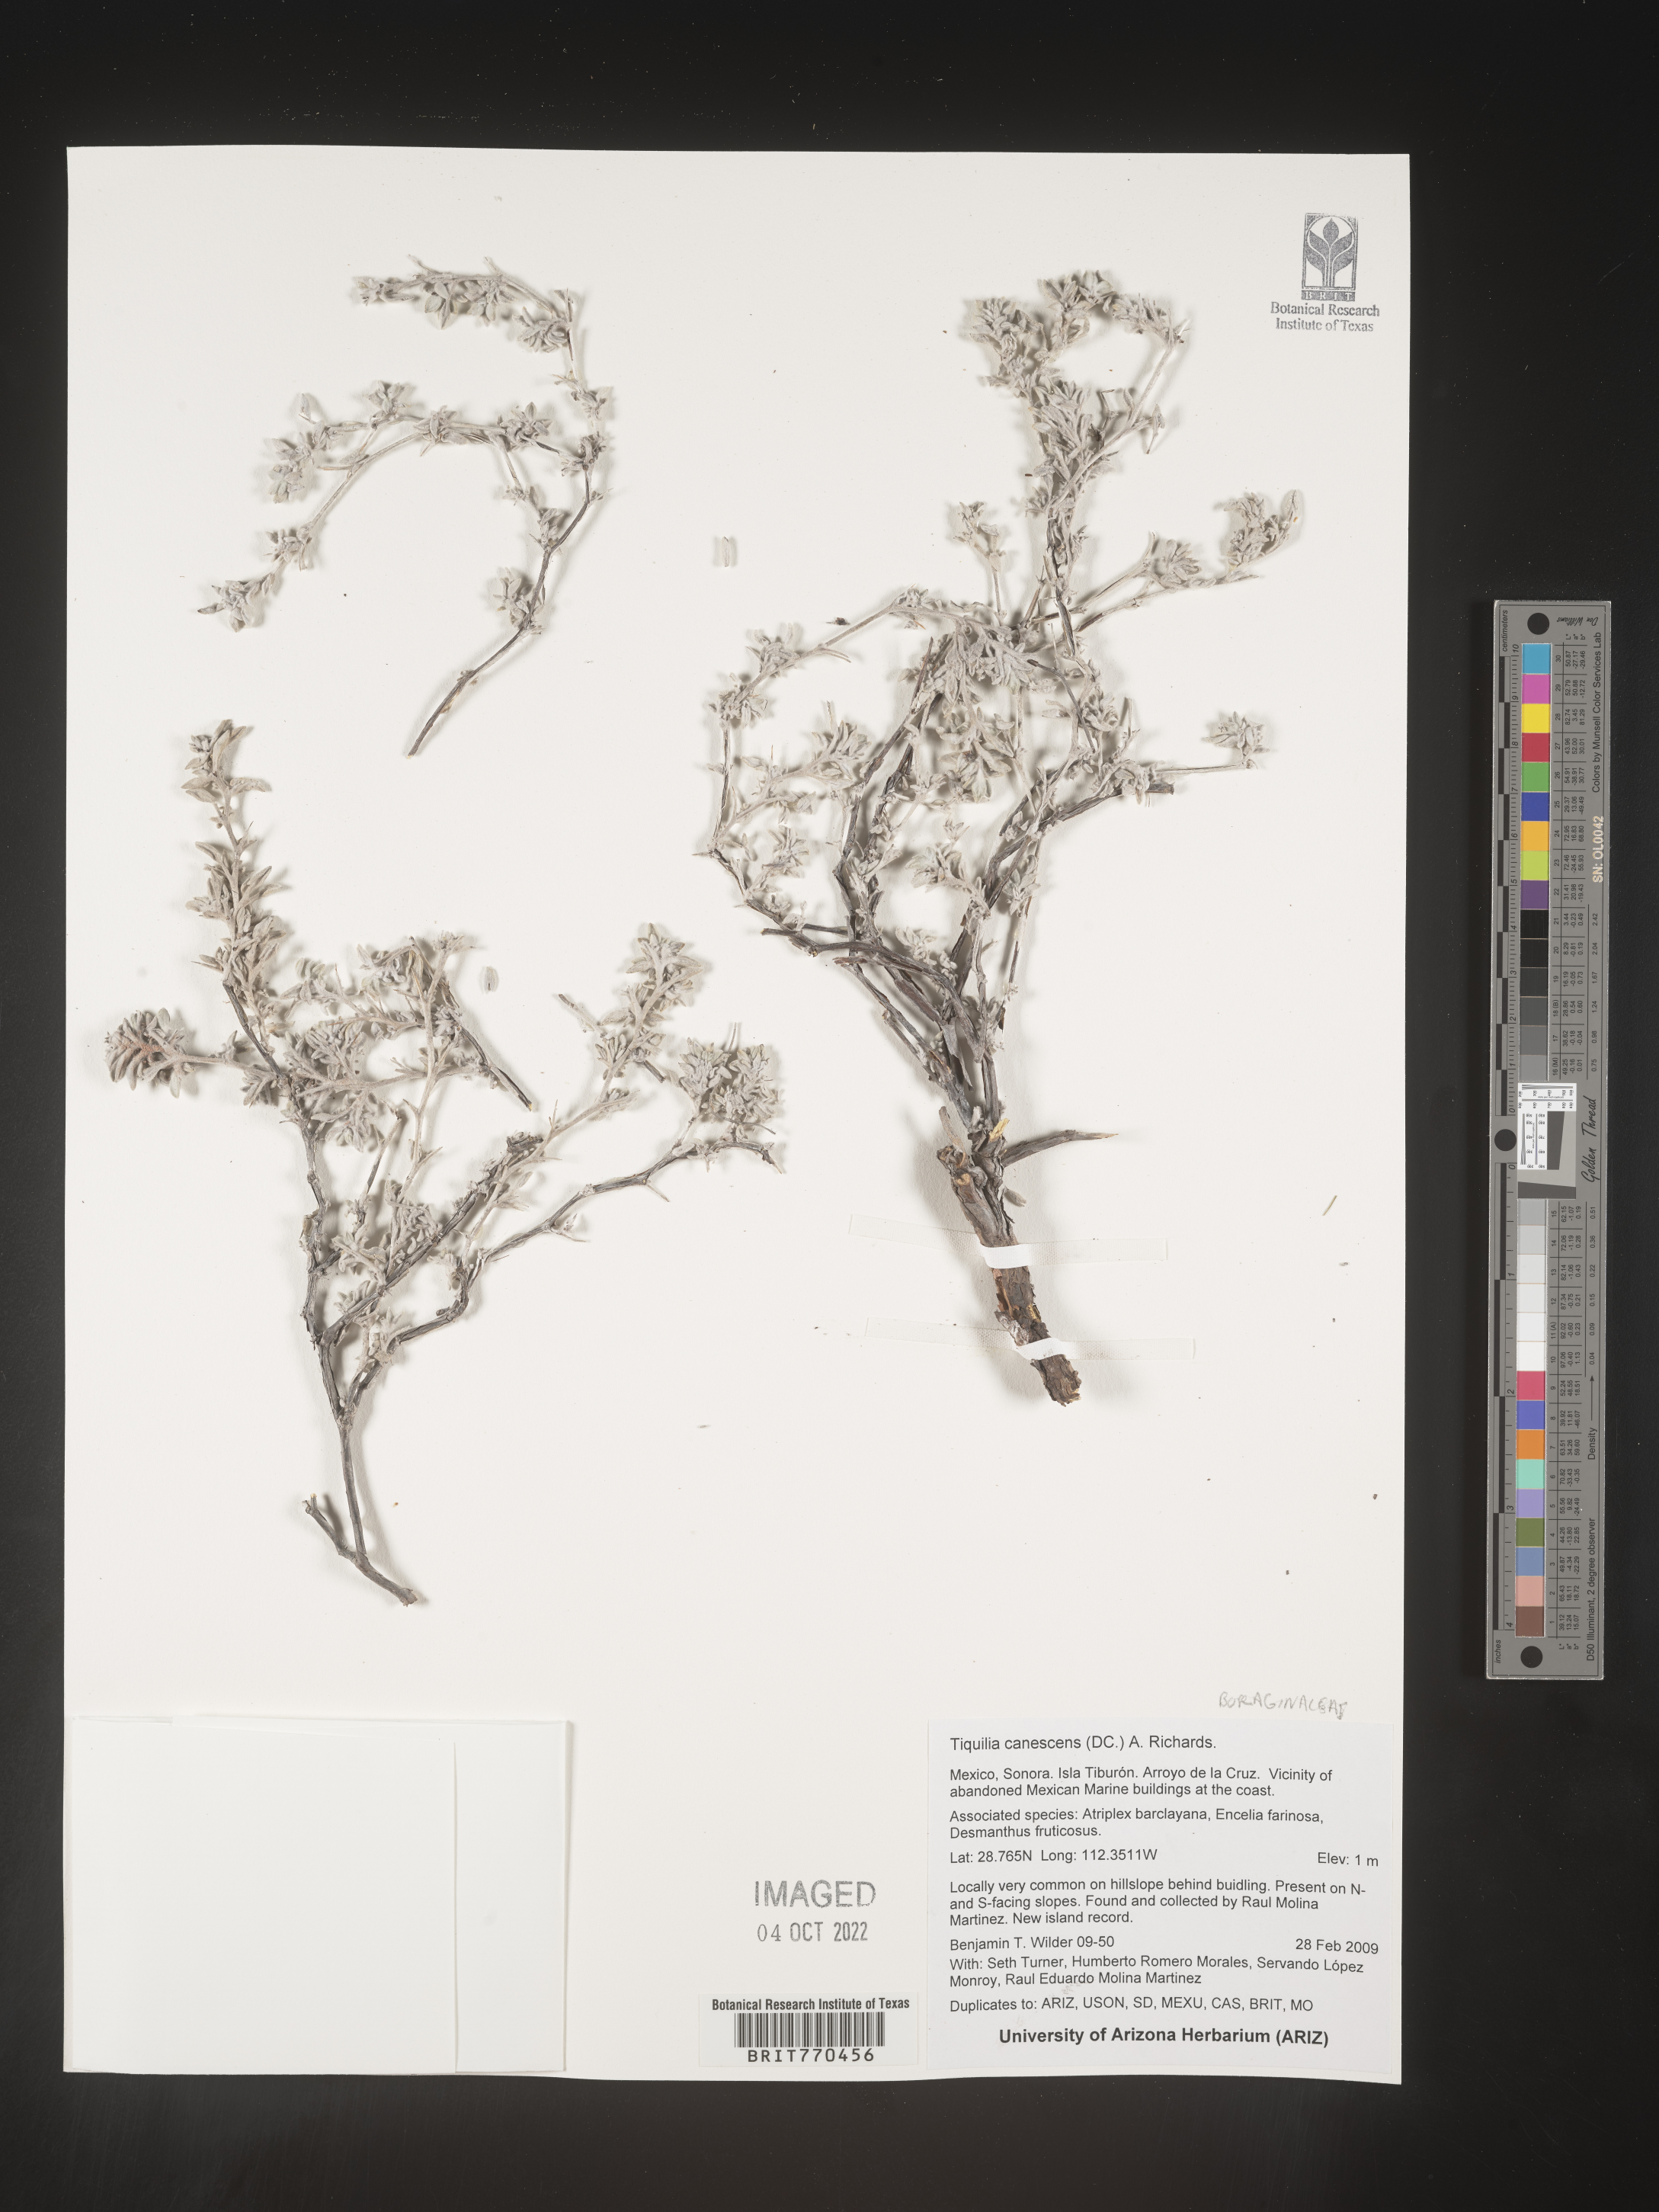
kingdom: Plantae
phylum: Tracheophyta
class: Magnoliopsida
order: Boraginales
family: Ehretiaceae
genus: Tiquilia
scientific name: Tiquilia
